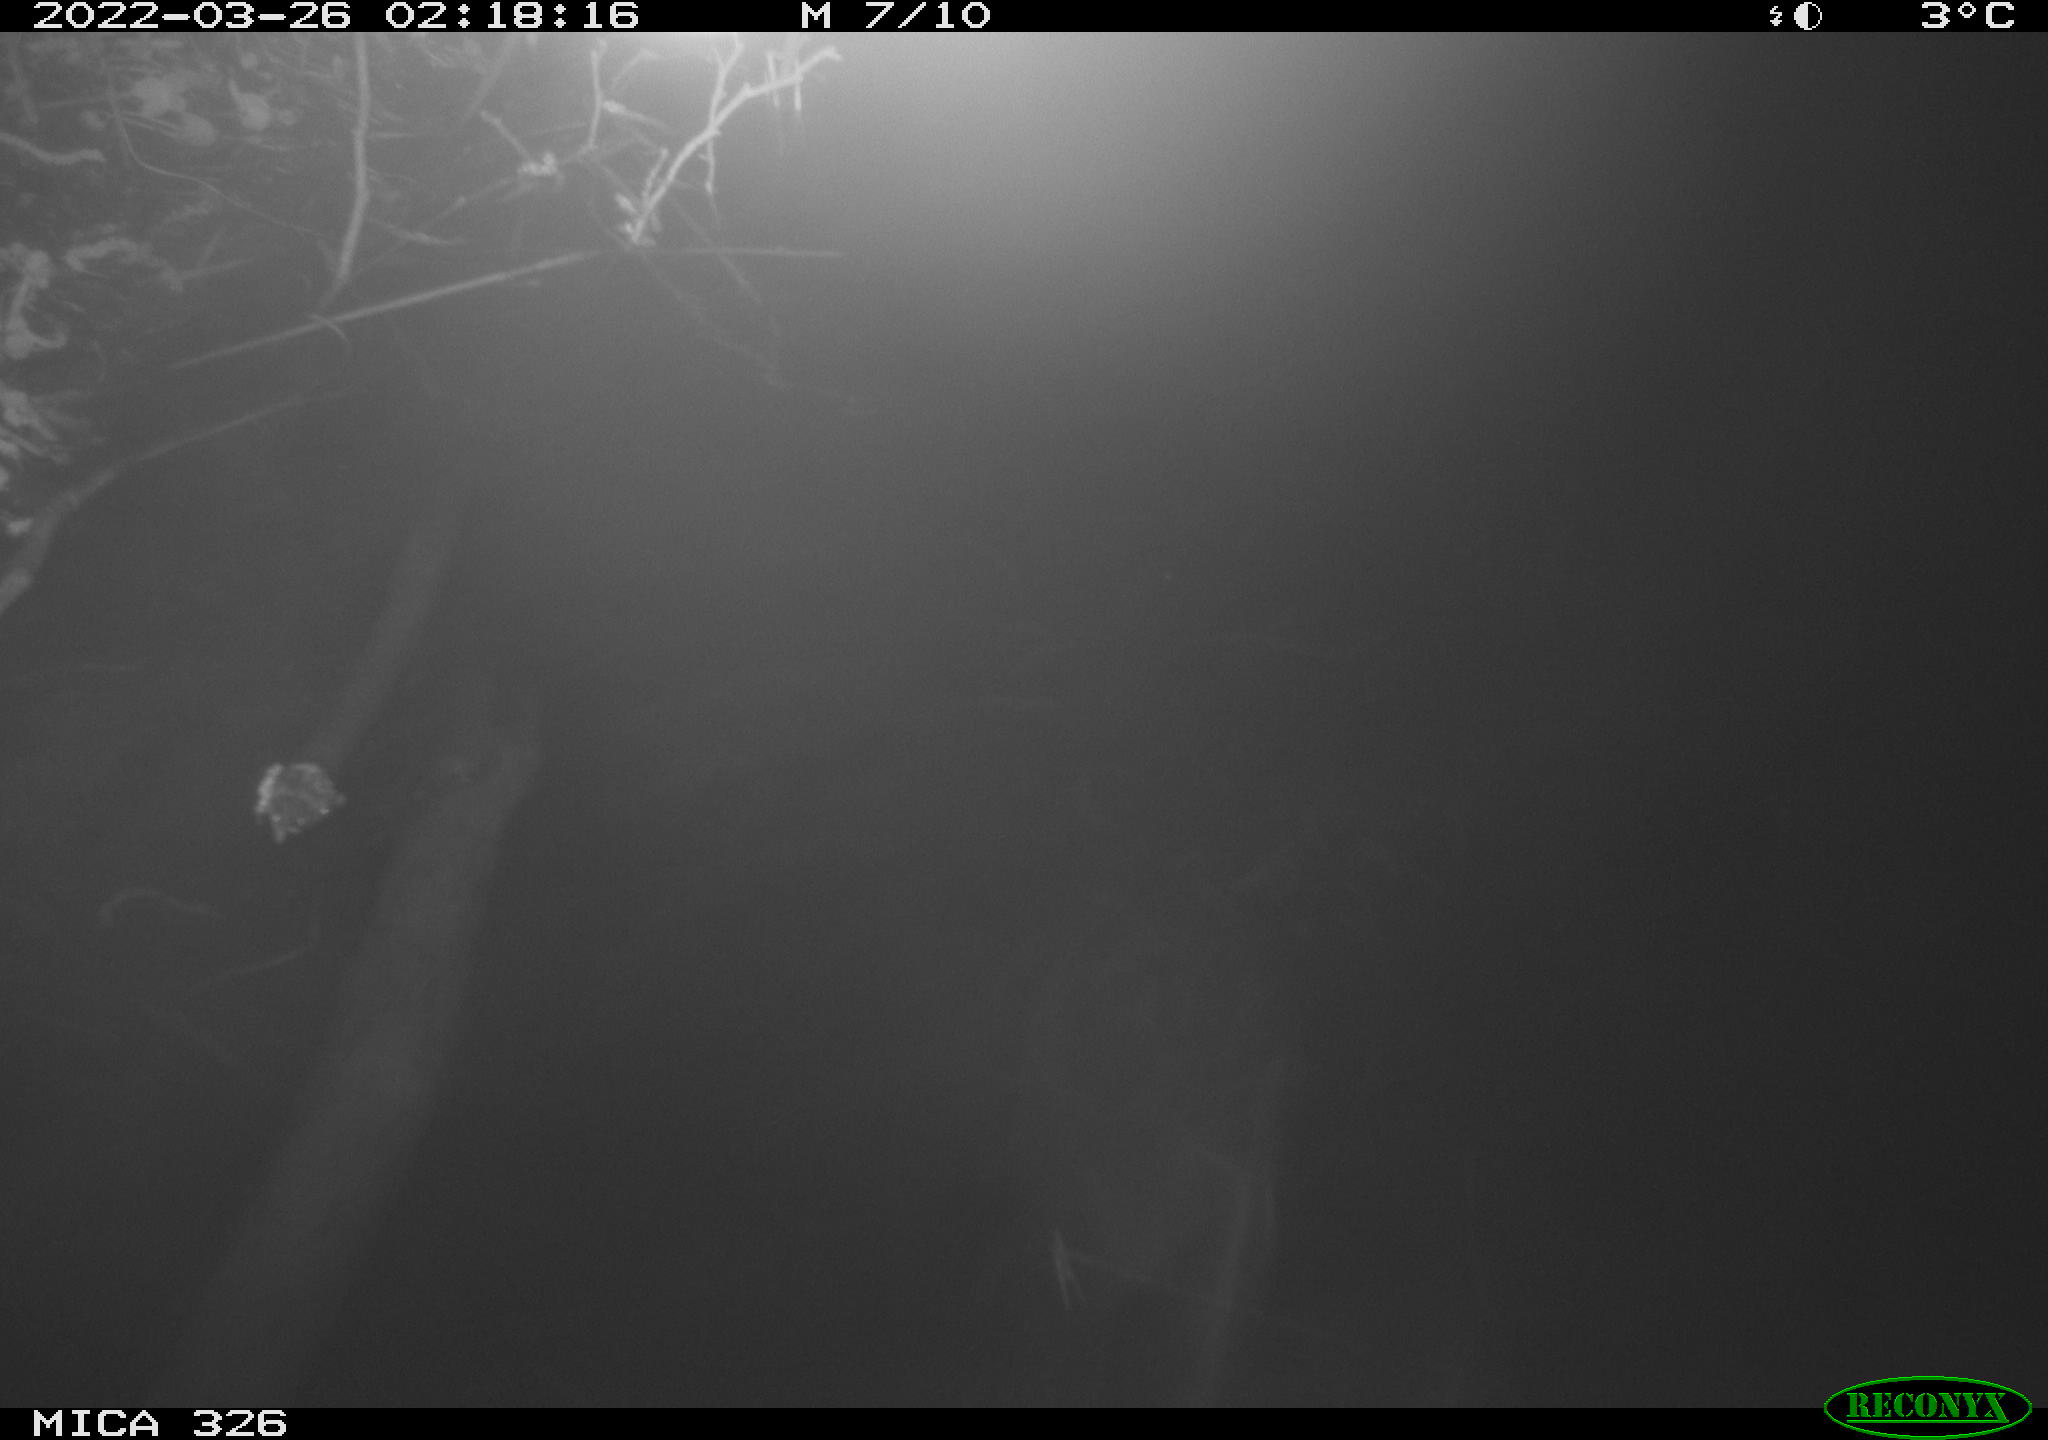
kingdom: Animalia
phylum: Chordata
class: Mammalia
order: Rodentia
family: Muridae
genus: Rattus
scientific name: Rattus norvegicus
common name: Brown rat
